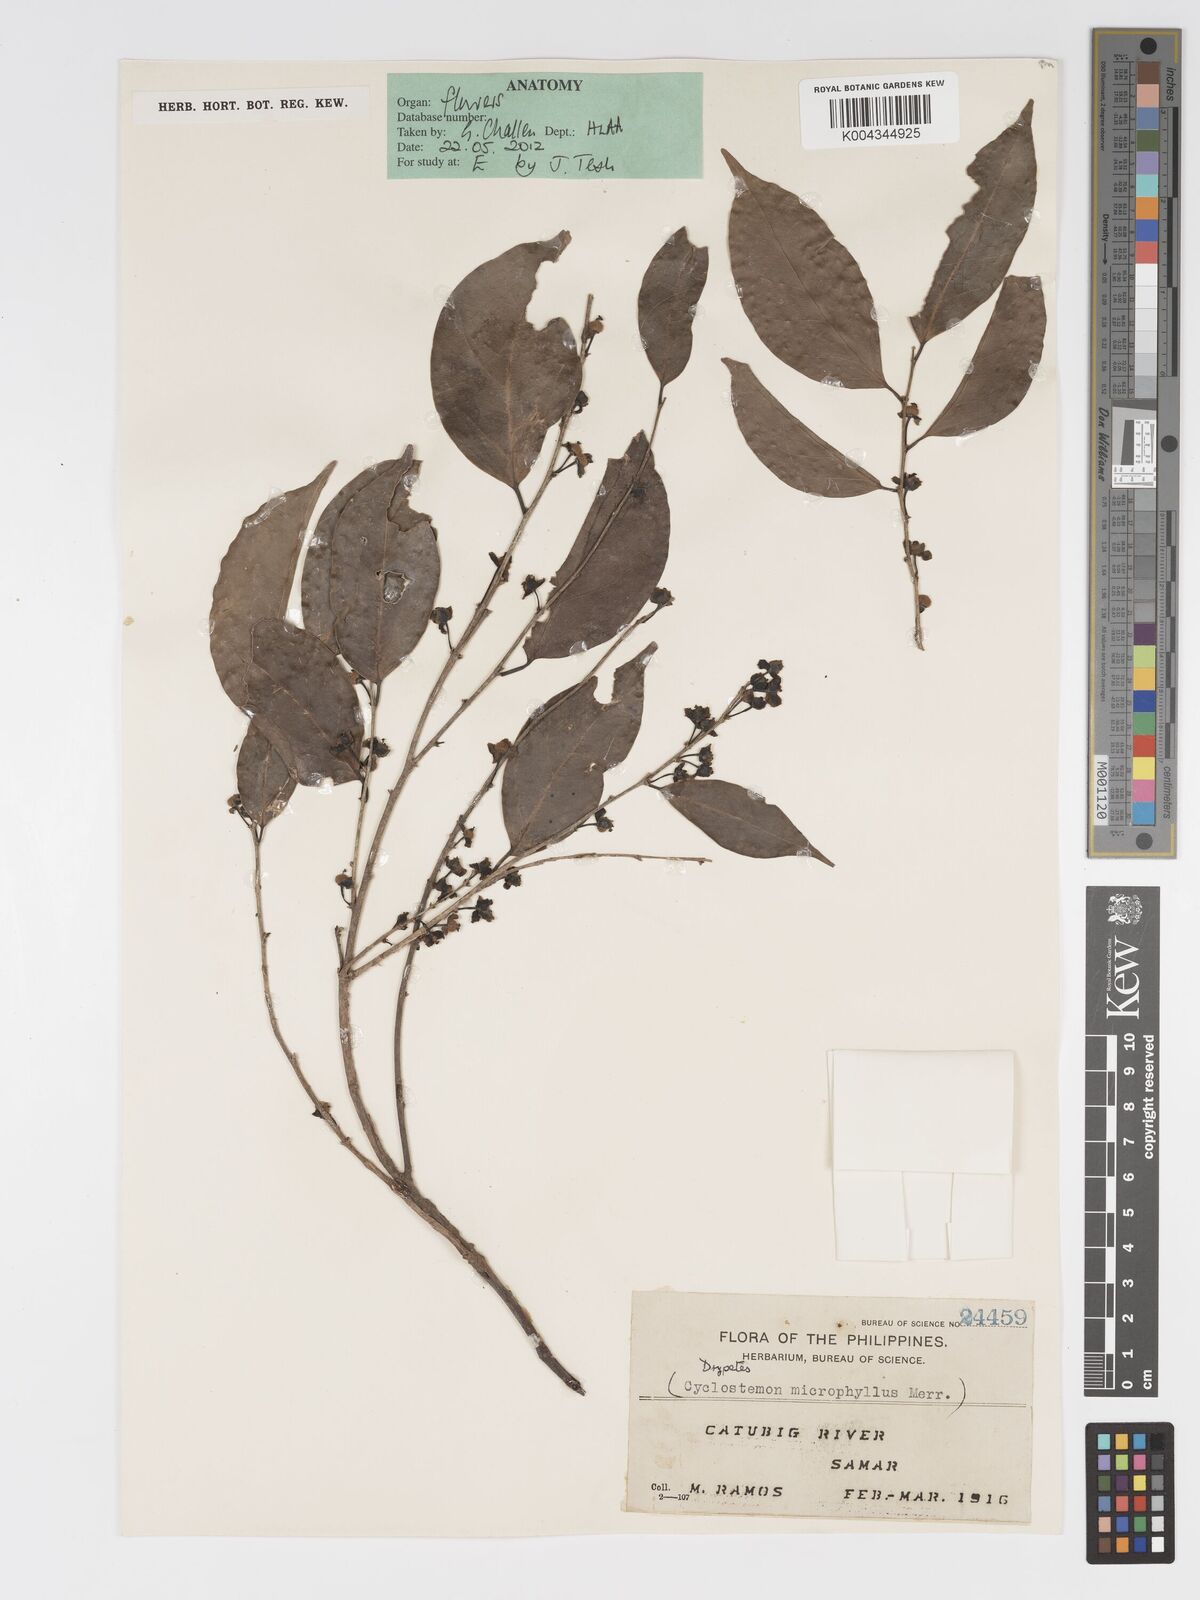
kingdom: Plantae
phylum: Tracheophyta
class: Magnoliopsida
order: Malpighiales
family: Putranjivaceae
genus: Drypetes
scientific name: Drypetes microphylla
